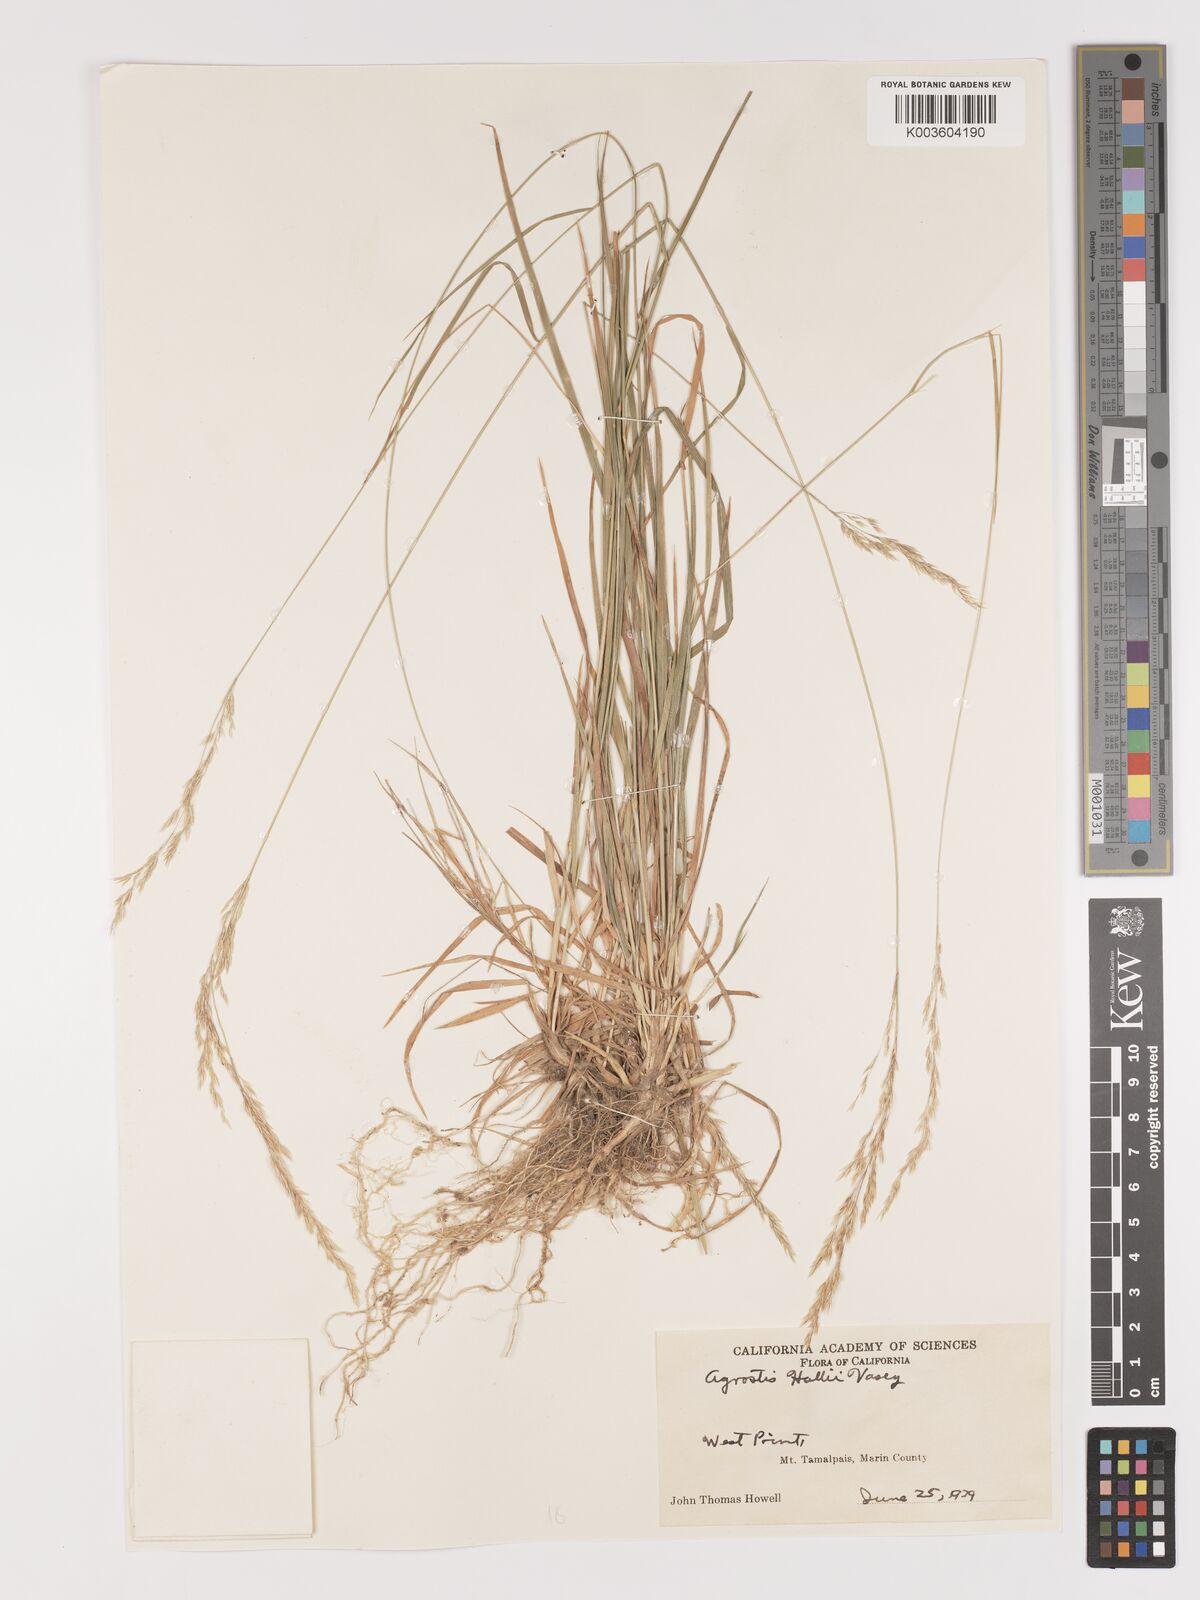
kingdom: Plantae
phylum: Tracheophyta
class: Liliopsida
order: Poales
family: Poaceae
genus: Agrostis
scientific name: Agrostis hallii
